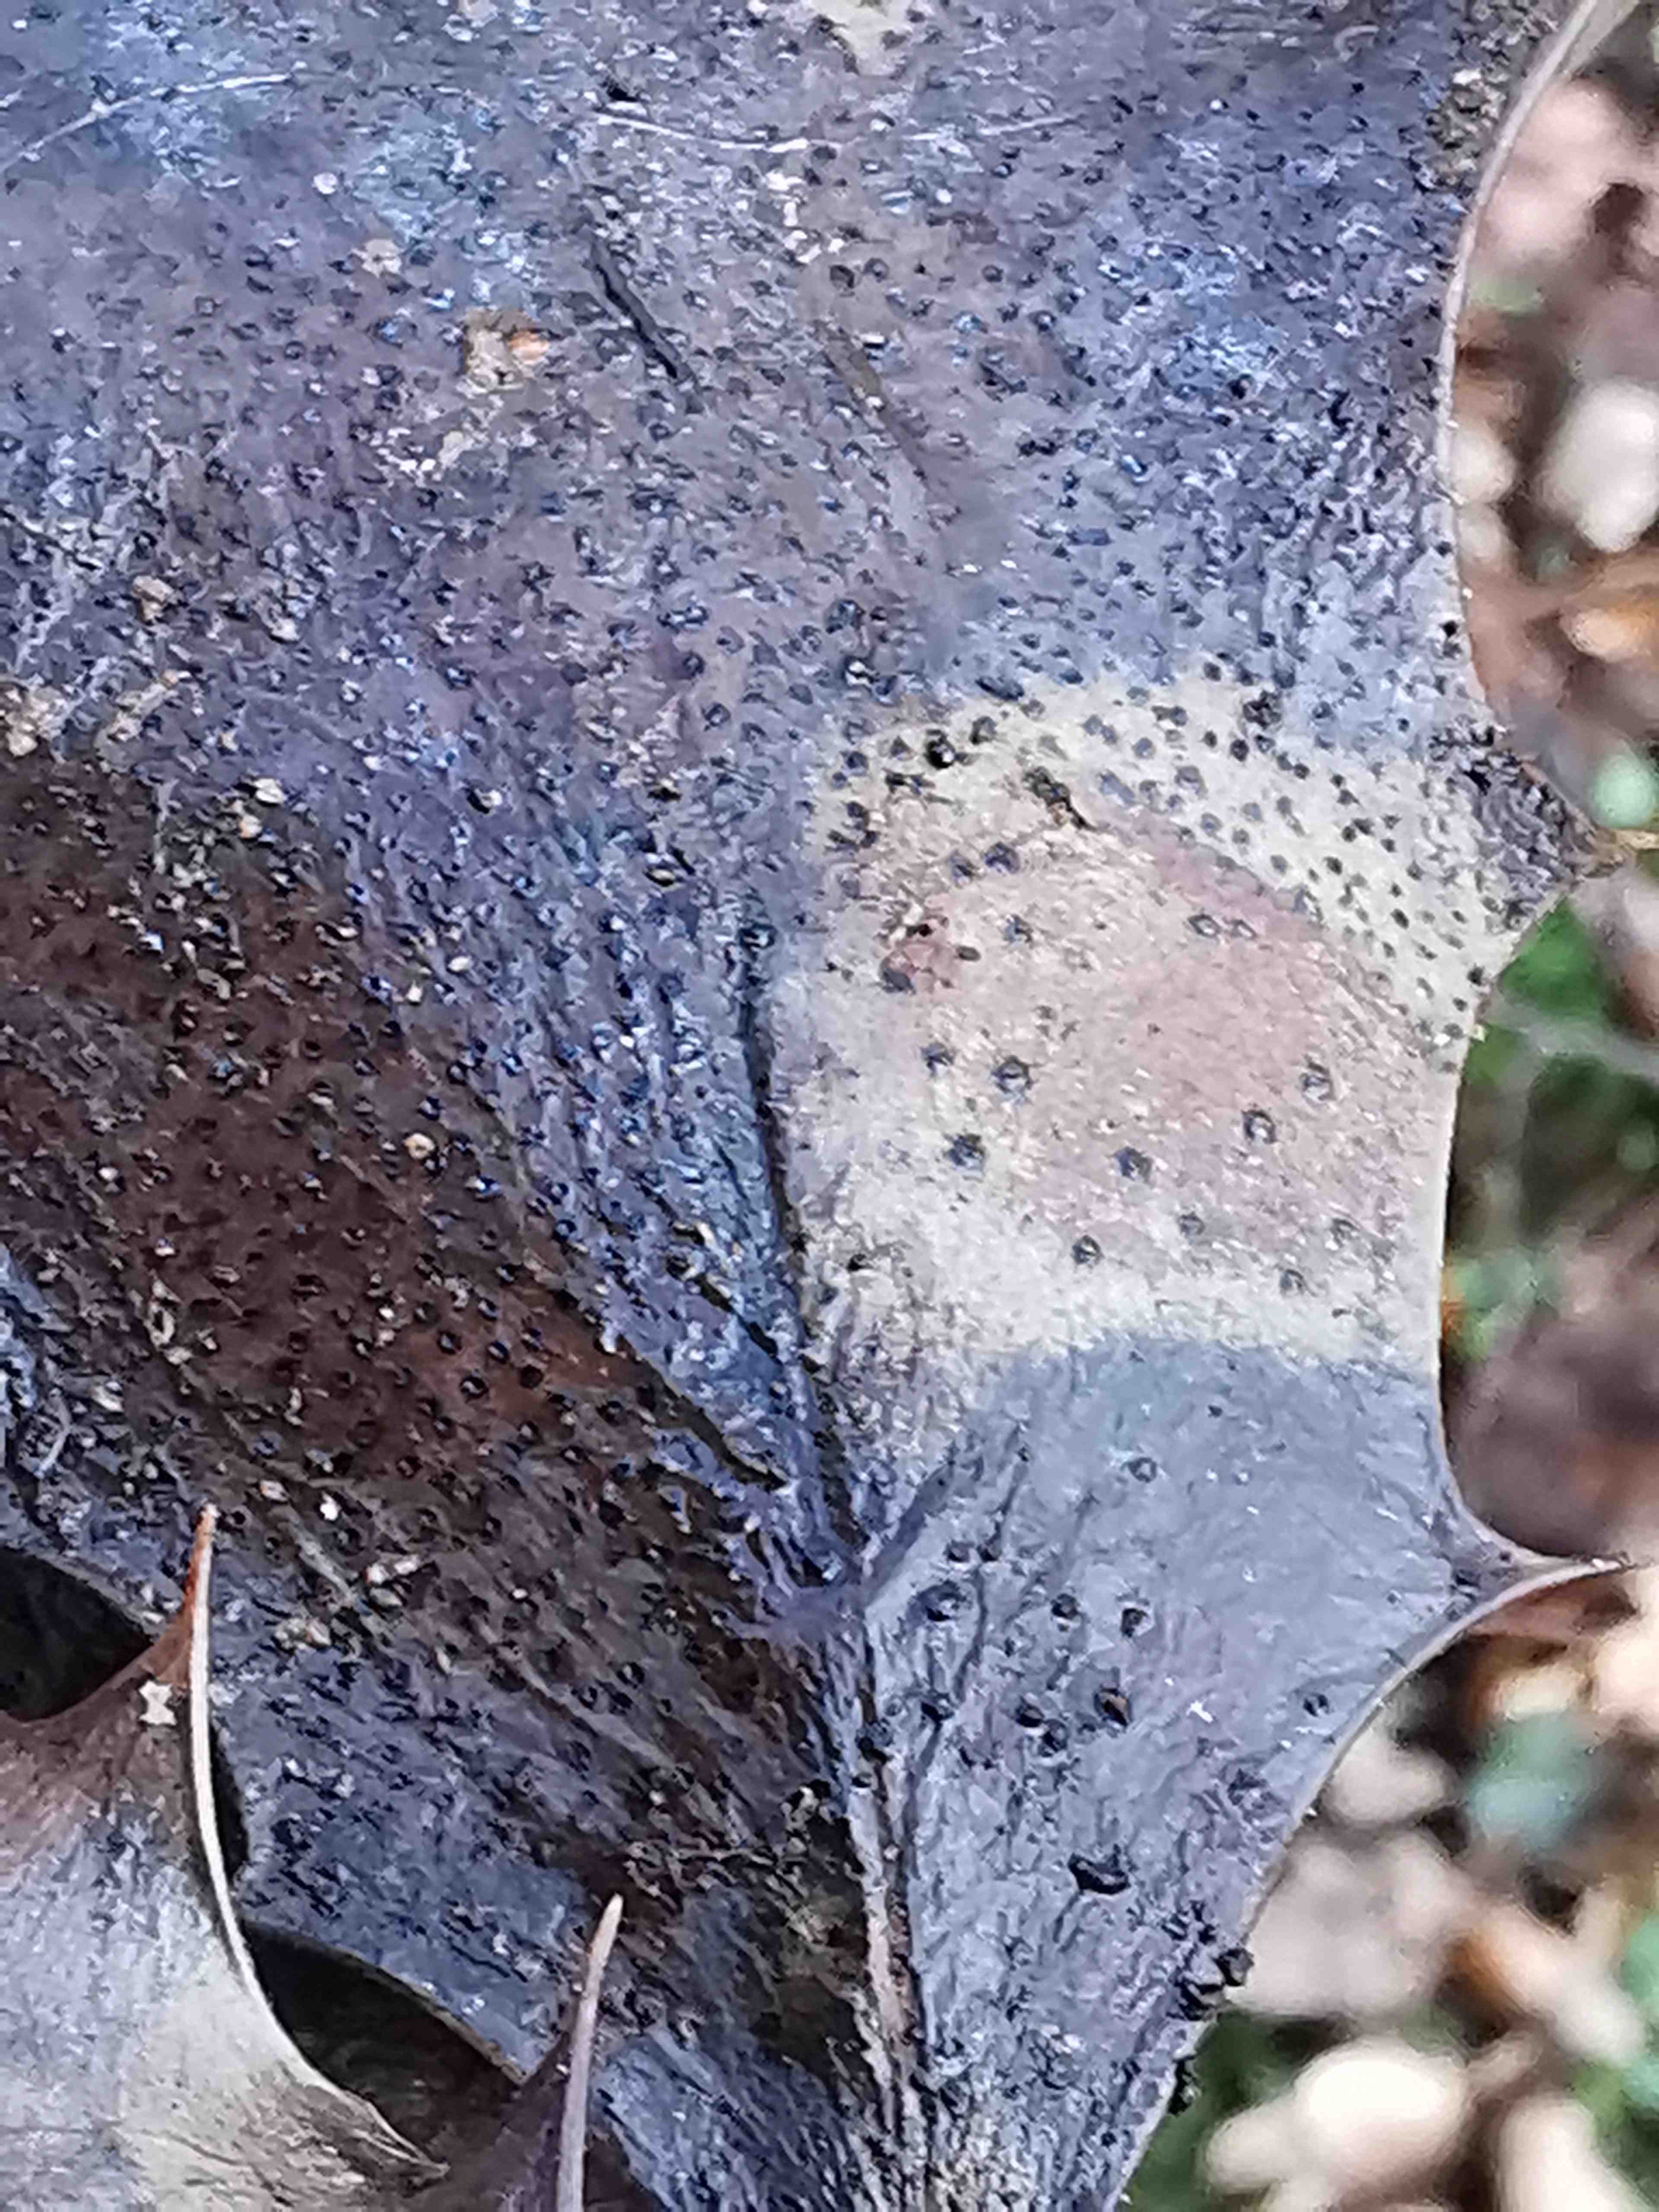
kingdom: Fungi
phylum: Ascomycota
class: Leotiomycetes
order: Phacidiales
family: Phacidiaceae
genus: Phacidium
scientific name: Phacidium lauri
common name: kristtorn-tandskive
